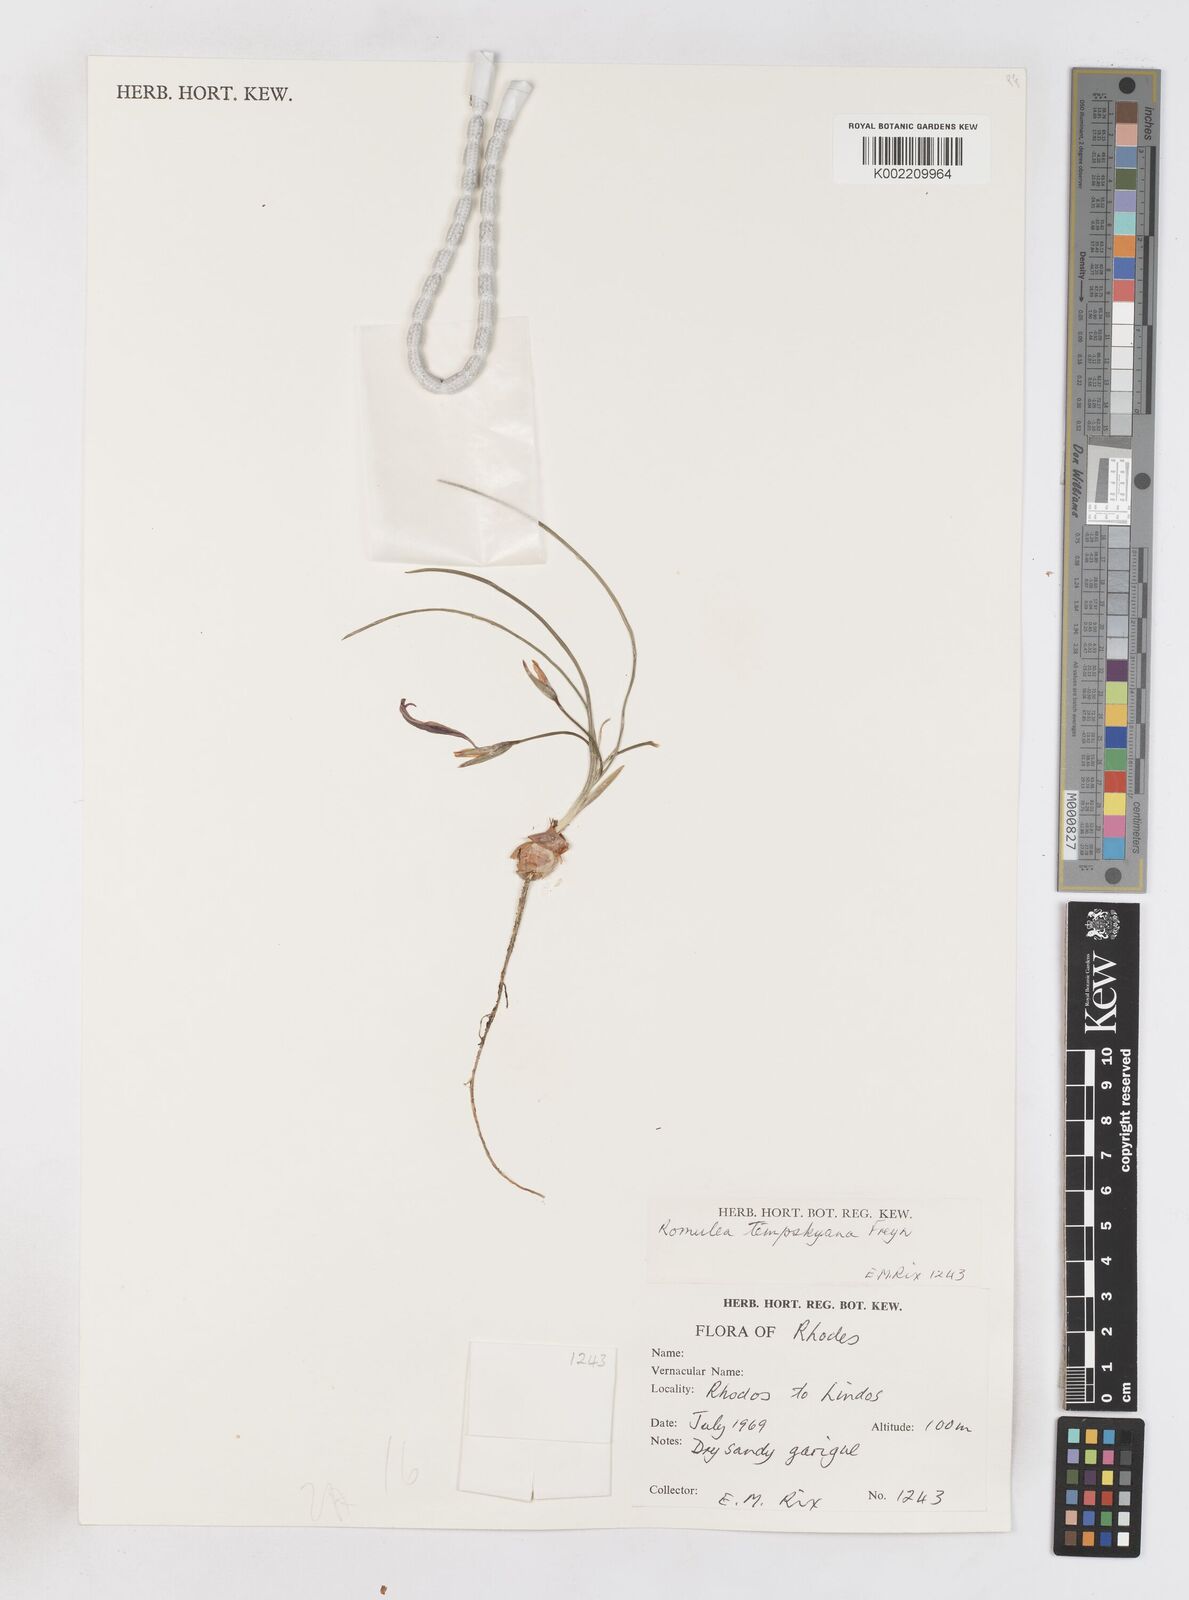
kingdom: Plantae
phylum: Tracheophyta
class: Liliopsida
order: Asparagales
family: Iridaceae
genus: Romulea
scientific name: Romulea tempskyana
